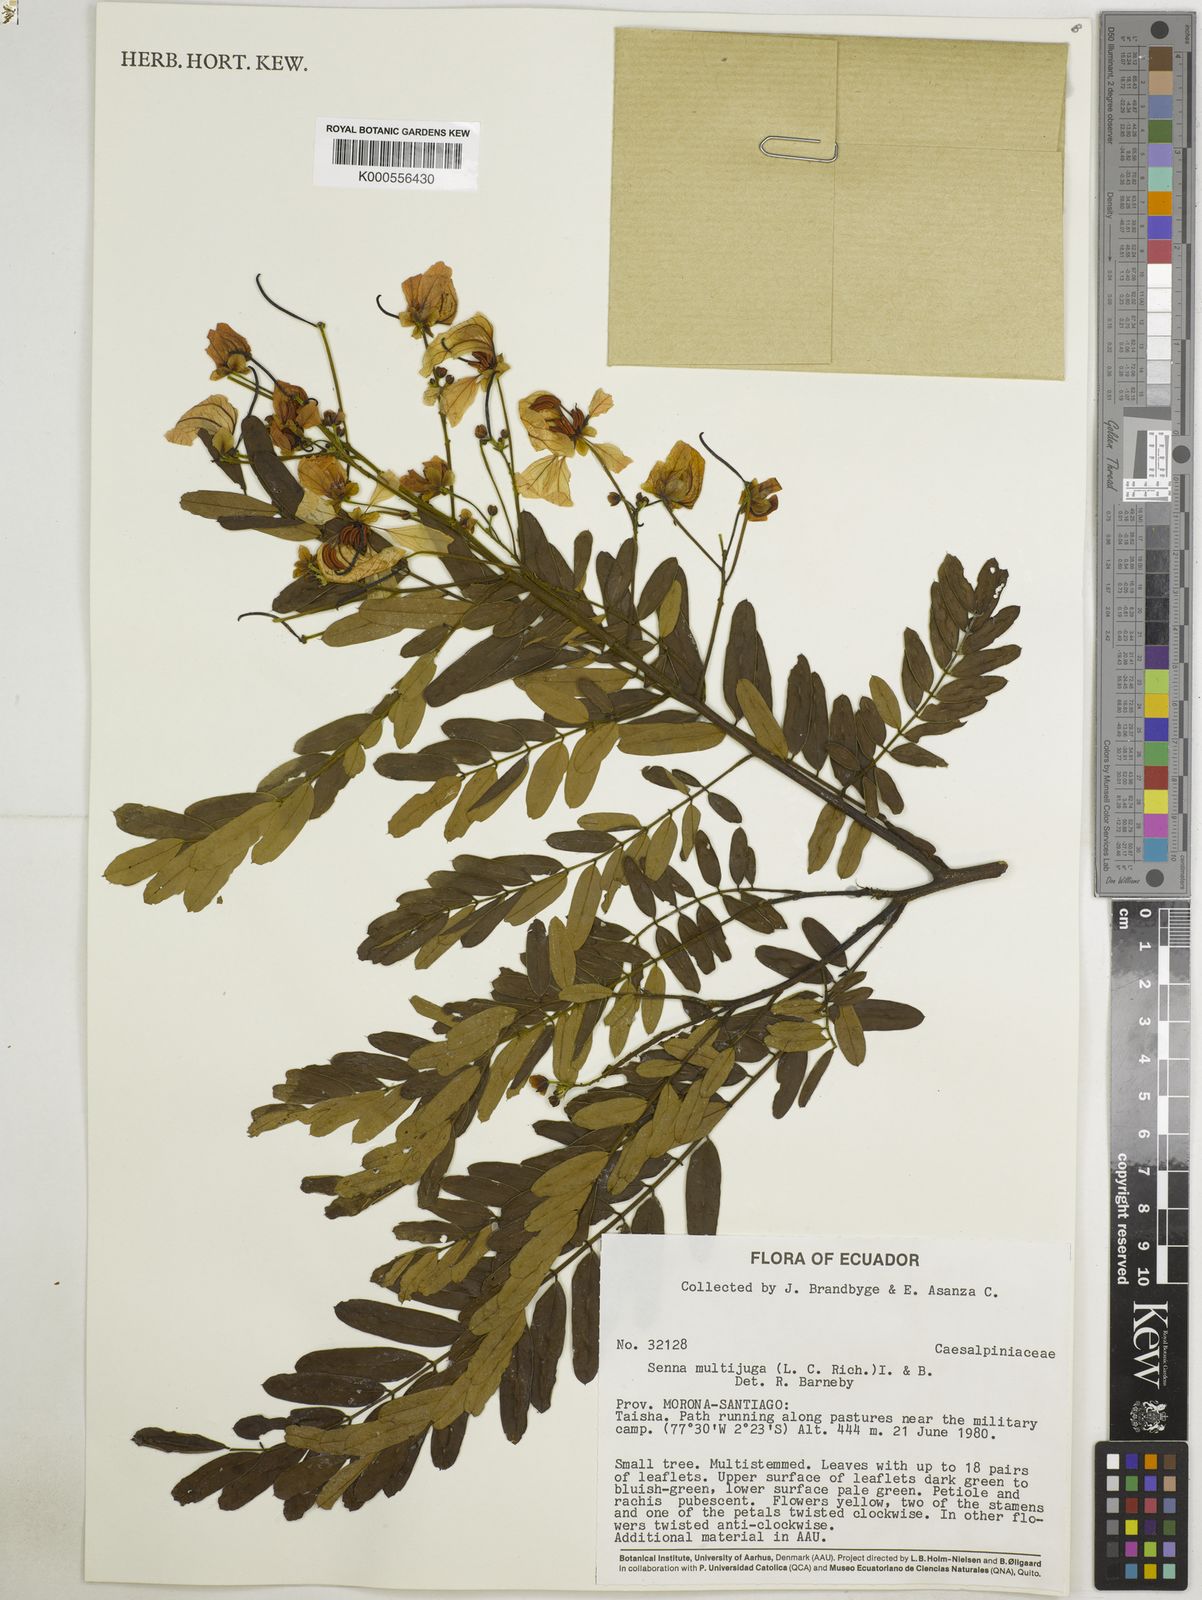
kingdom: Plantae
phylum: Tracheophyta
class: Magnoliopsida
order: Fabales
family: Fabaceae
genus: Senna
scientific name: Senna multijuga
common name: False sicklepod
